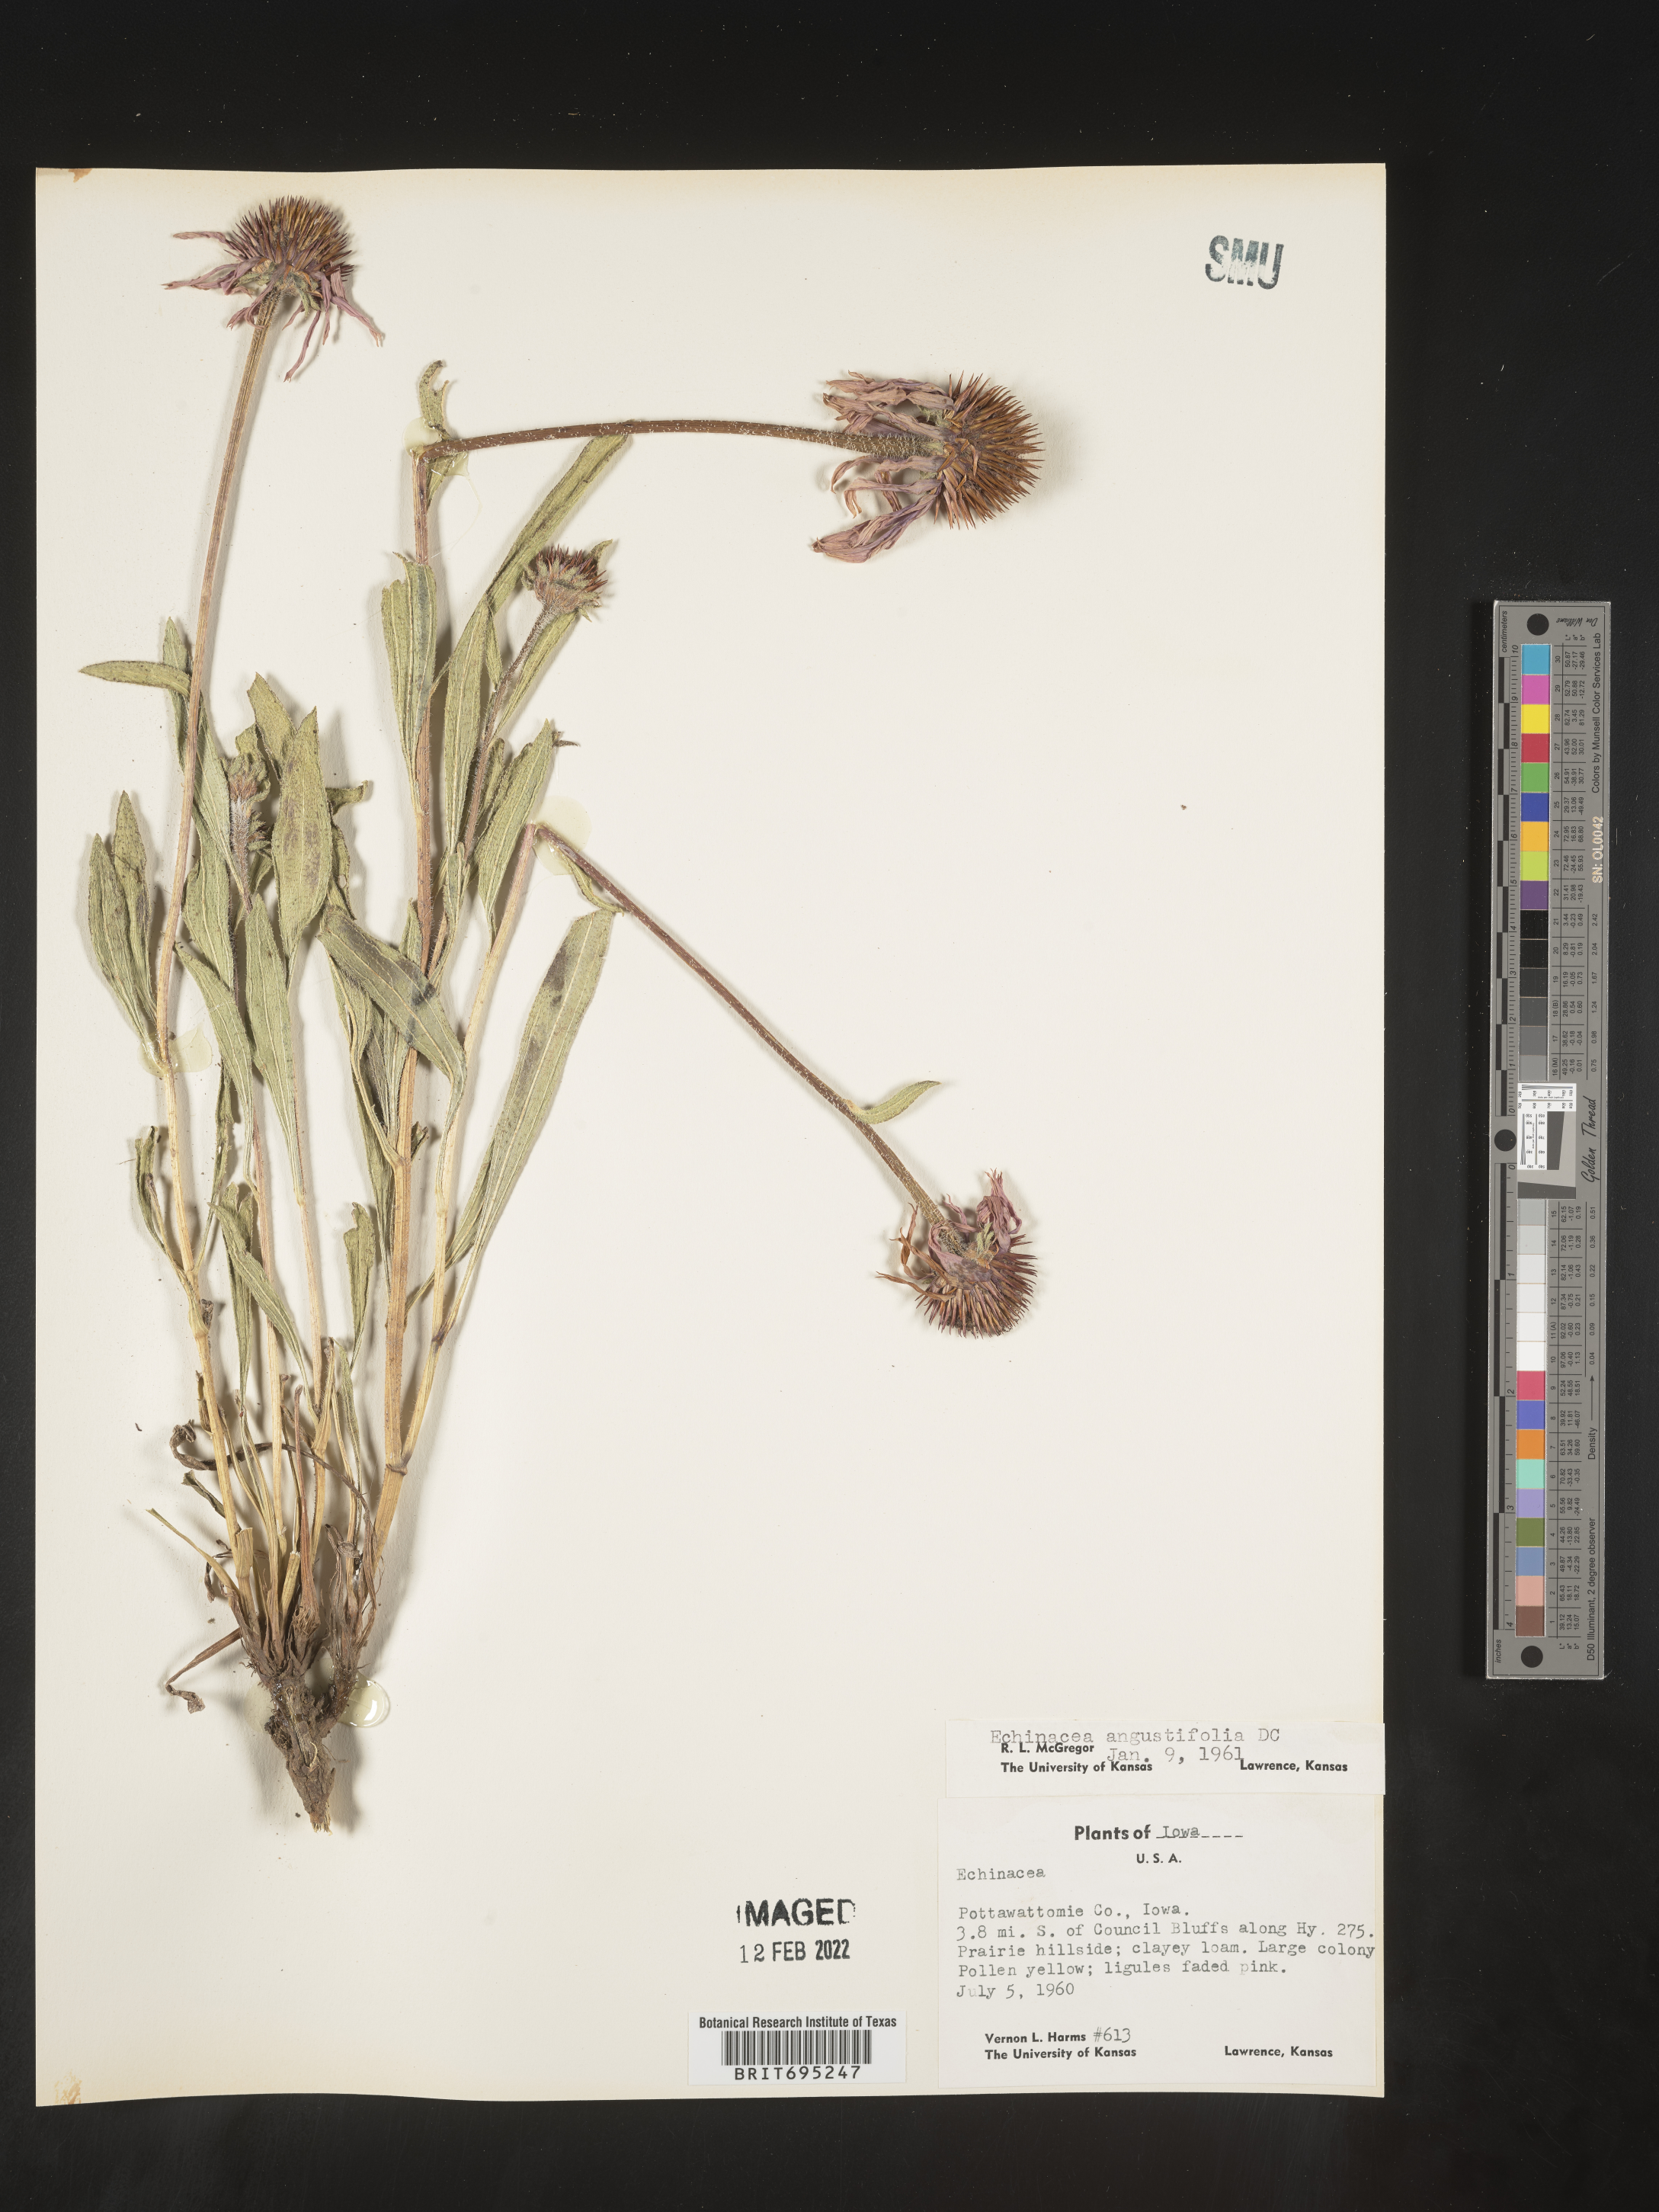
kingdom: Plantae
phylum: Tracheophyta
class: Magnoliopsida
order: Asterales
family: Asteraceae
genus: Echinacea
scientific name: Echinacea angustifolia
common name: Black-sampson echinacea
